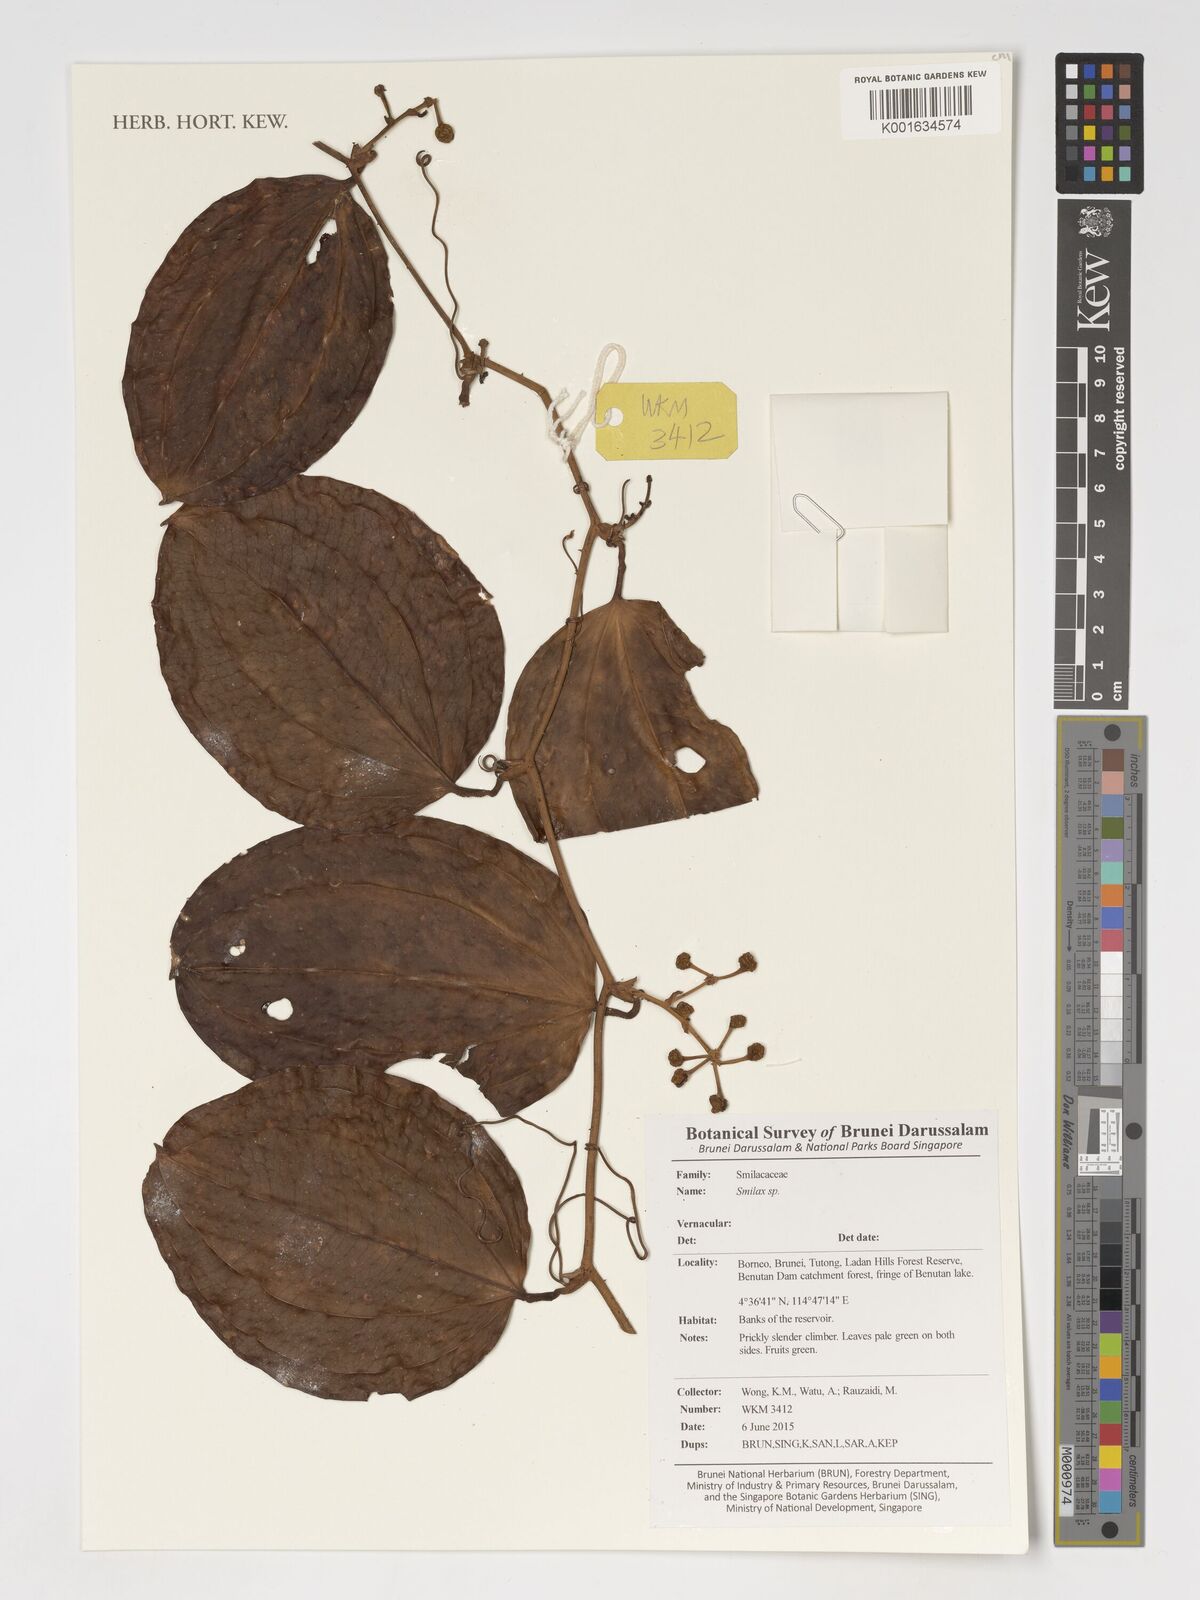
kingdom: Plantae
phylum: Tracheophyta
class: Liliopsida
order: Liliales
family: Smilacaceae
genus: Smilax
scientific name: Smilax
